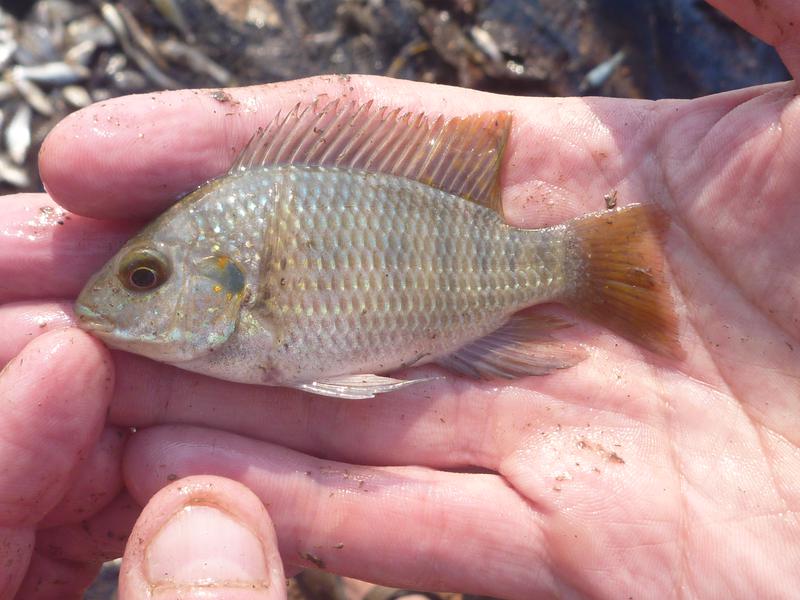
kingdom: Animalia
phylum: Chordata
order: Perciformes
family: Cichlidae
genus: Coptodon
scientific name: Coptodon rendalli
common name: Redbreast tilapia
